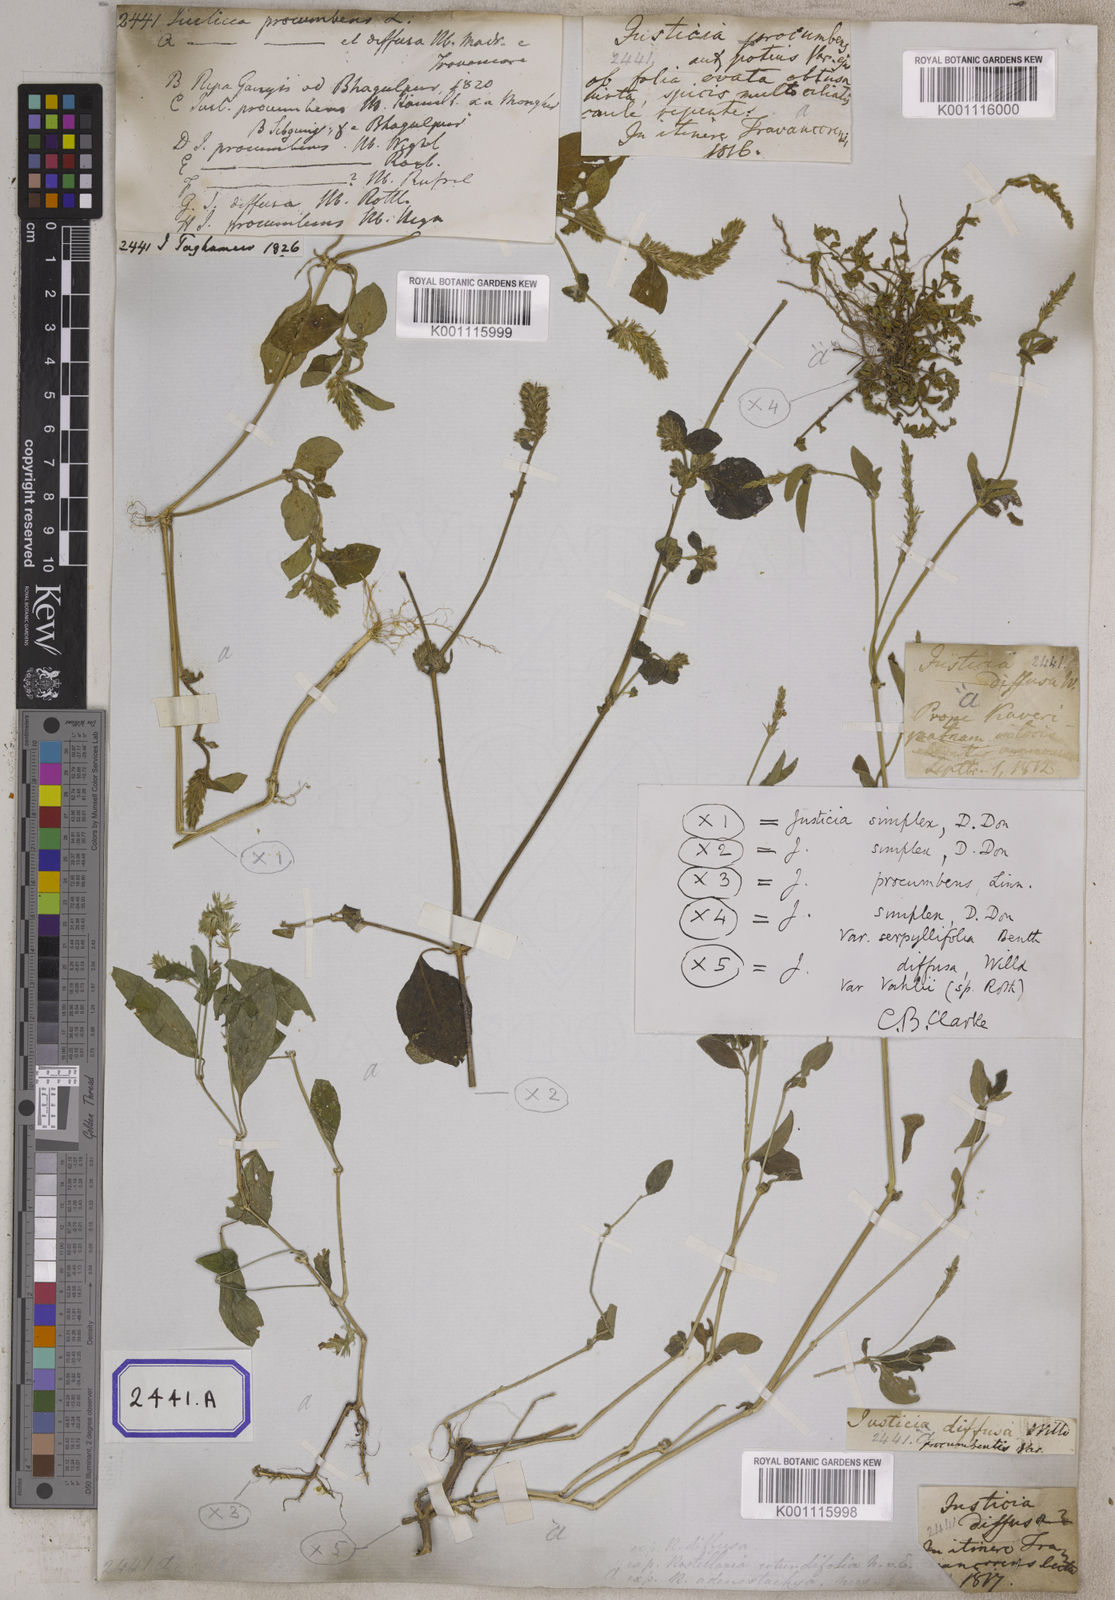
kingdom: Plantae
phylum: Tracheophyta
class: Magnoliopsida
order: Lamiales
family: Acanthaceae
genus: Rostellularia
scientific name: Rostellularia procumbens
